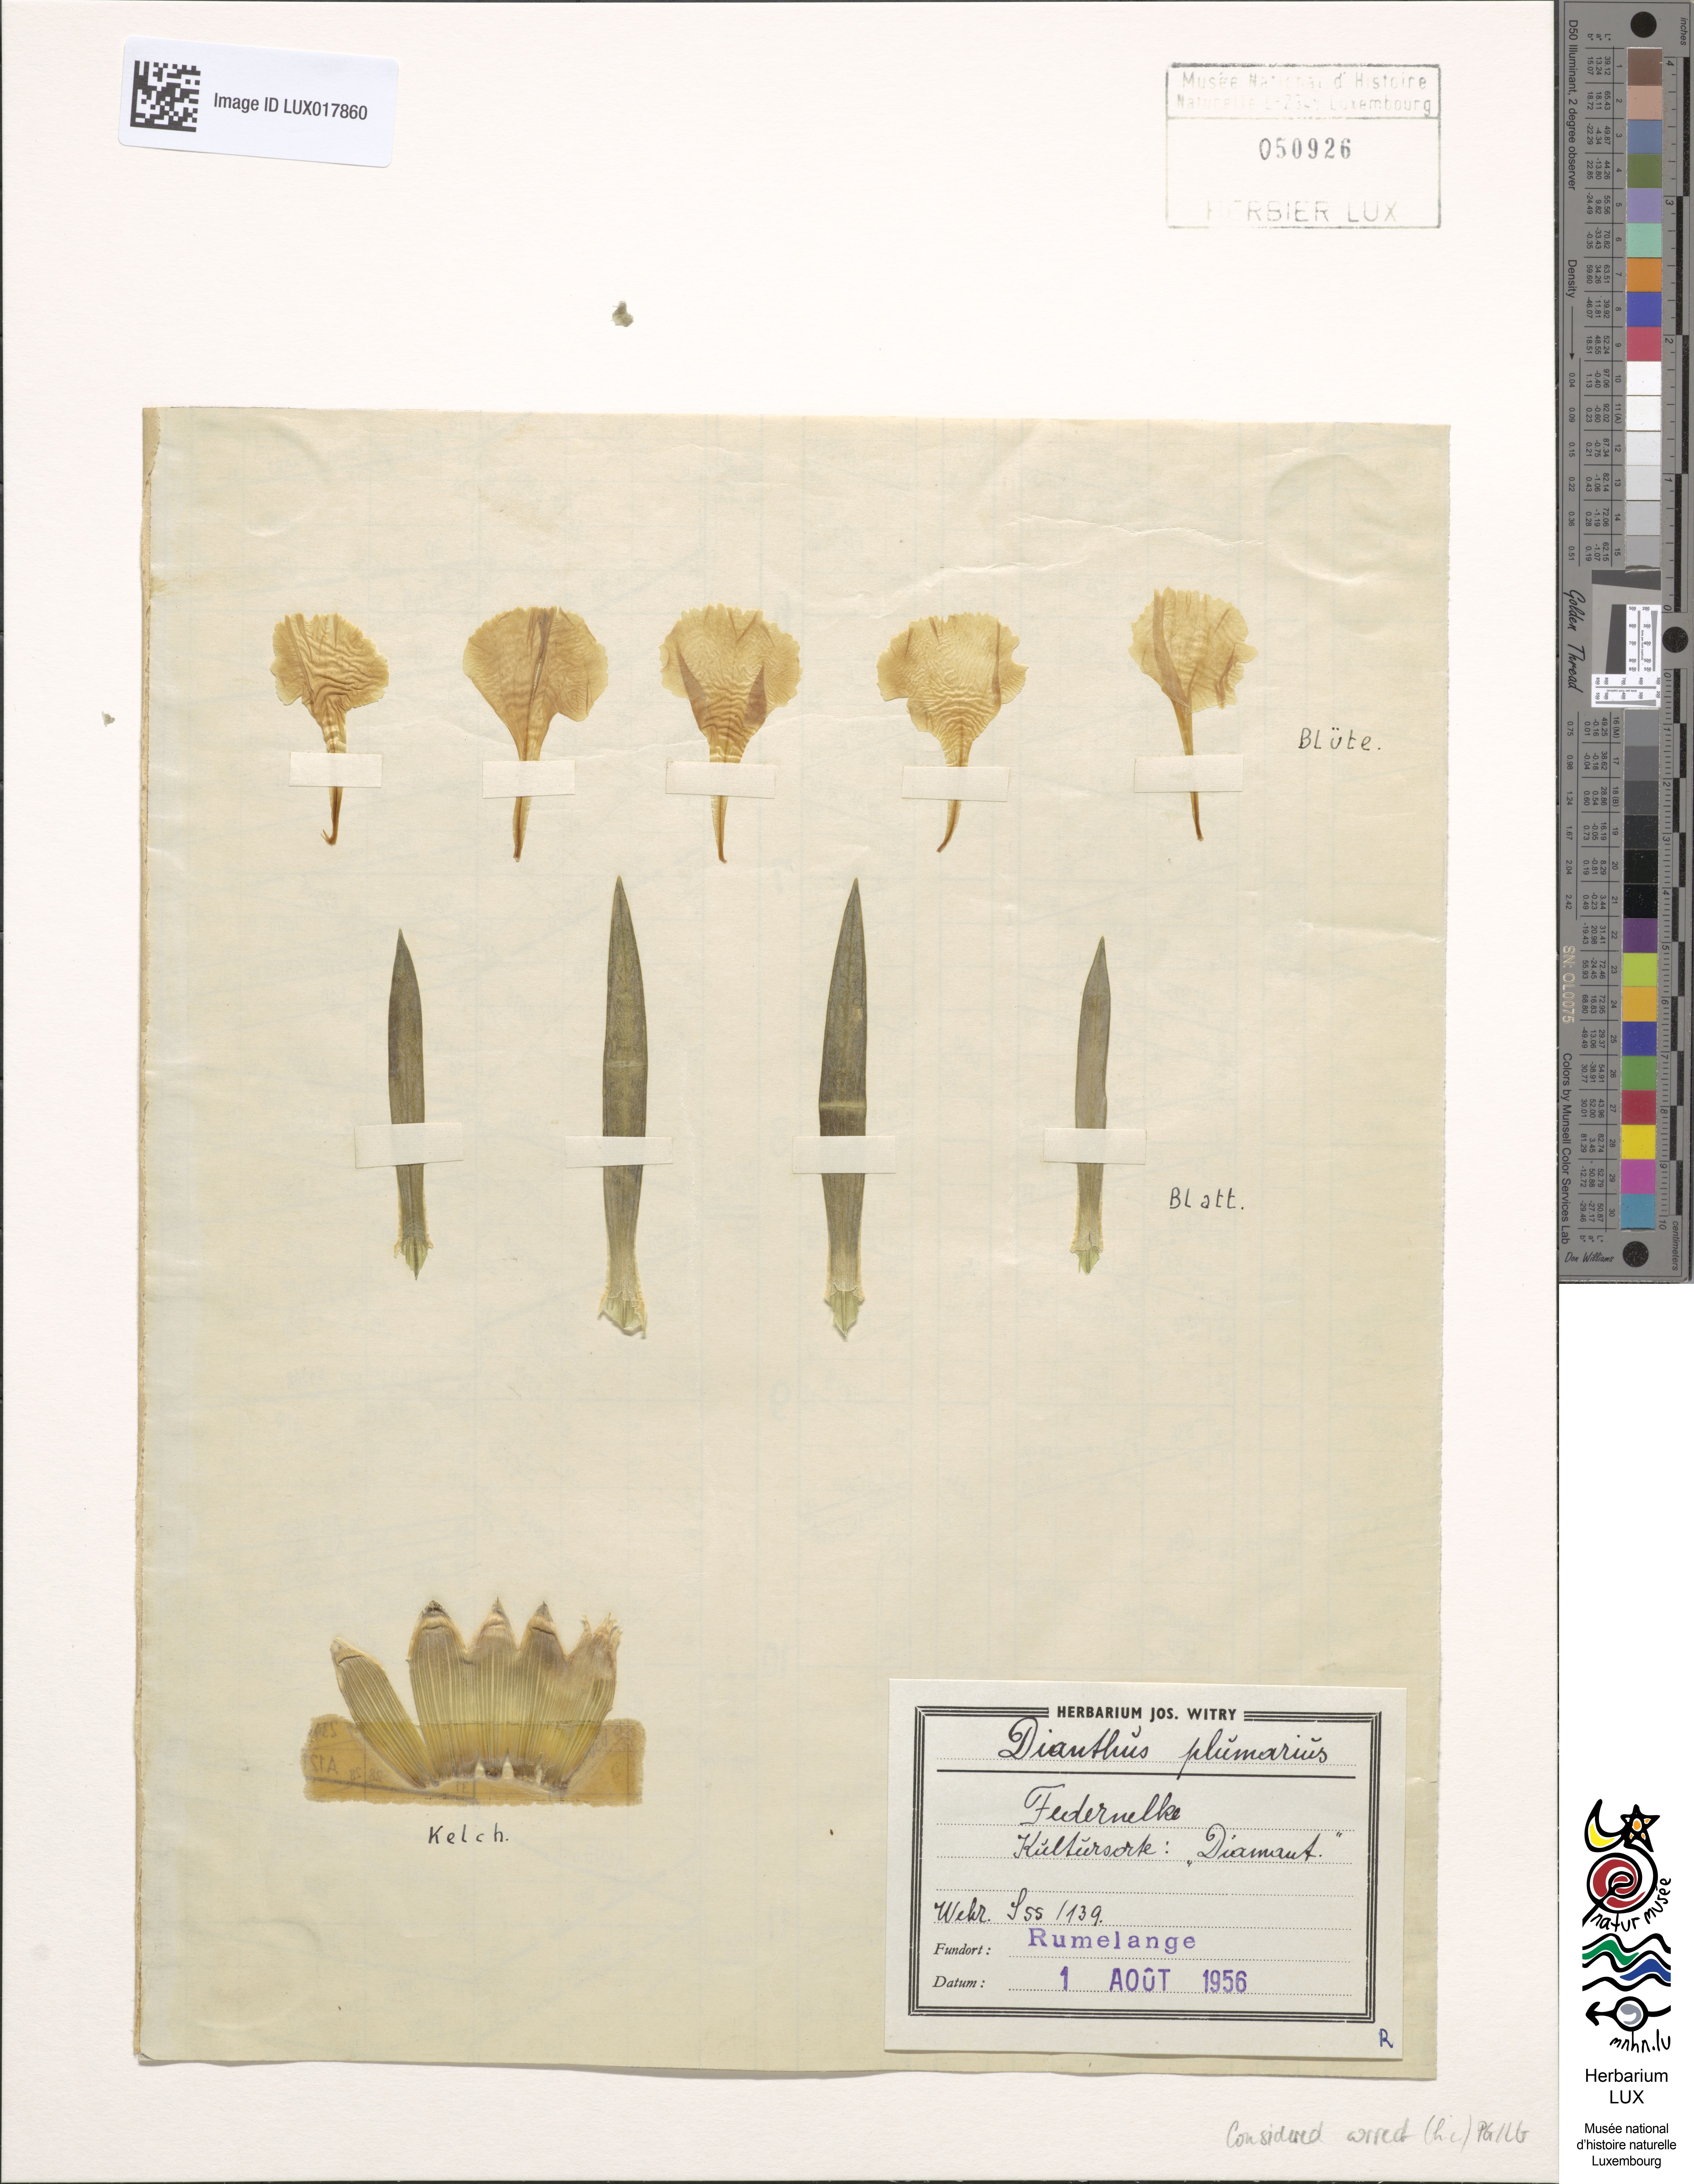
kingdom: Plantae
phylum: Tracheophyta
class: Magnoliopsida
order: Caryophyllales
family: Caryophyllaceae
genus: Dianthus
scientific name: Dianthus plumarius
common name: Pink
